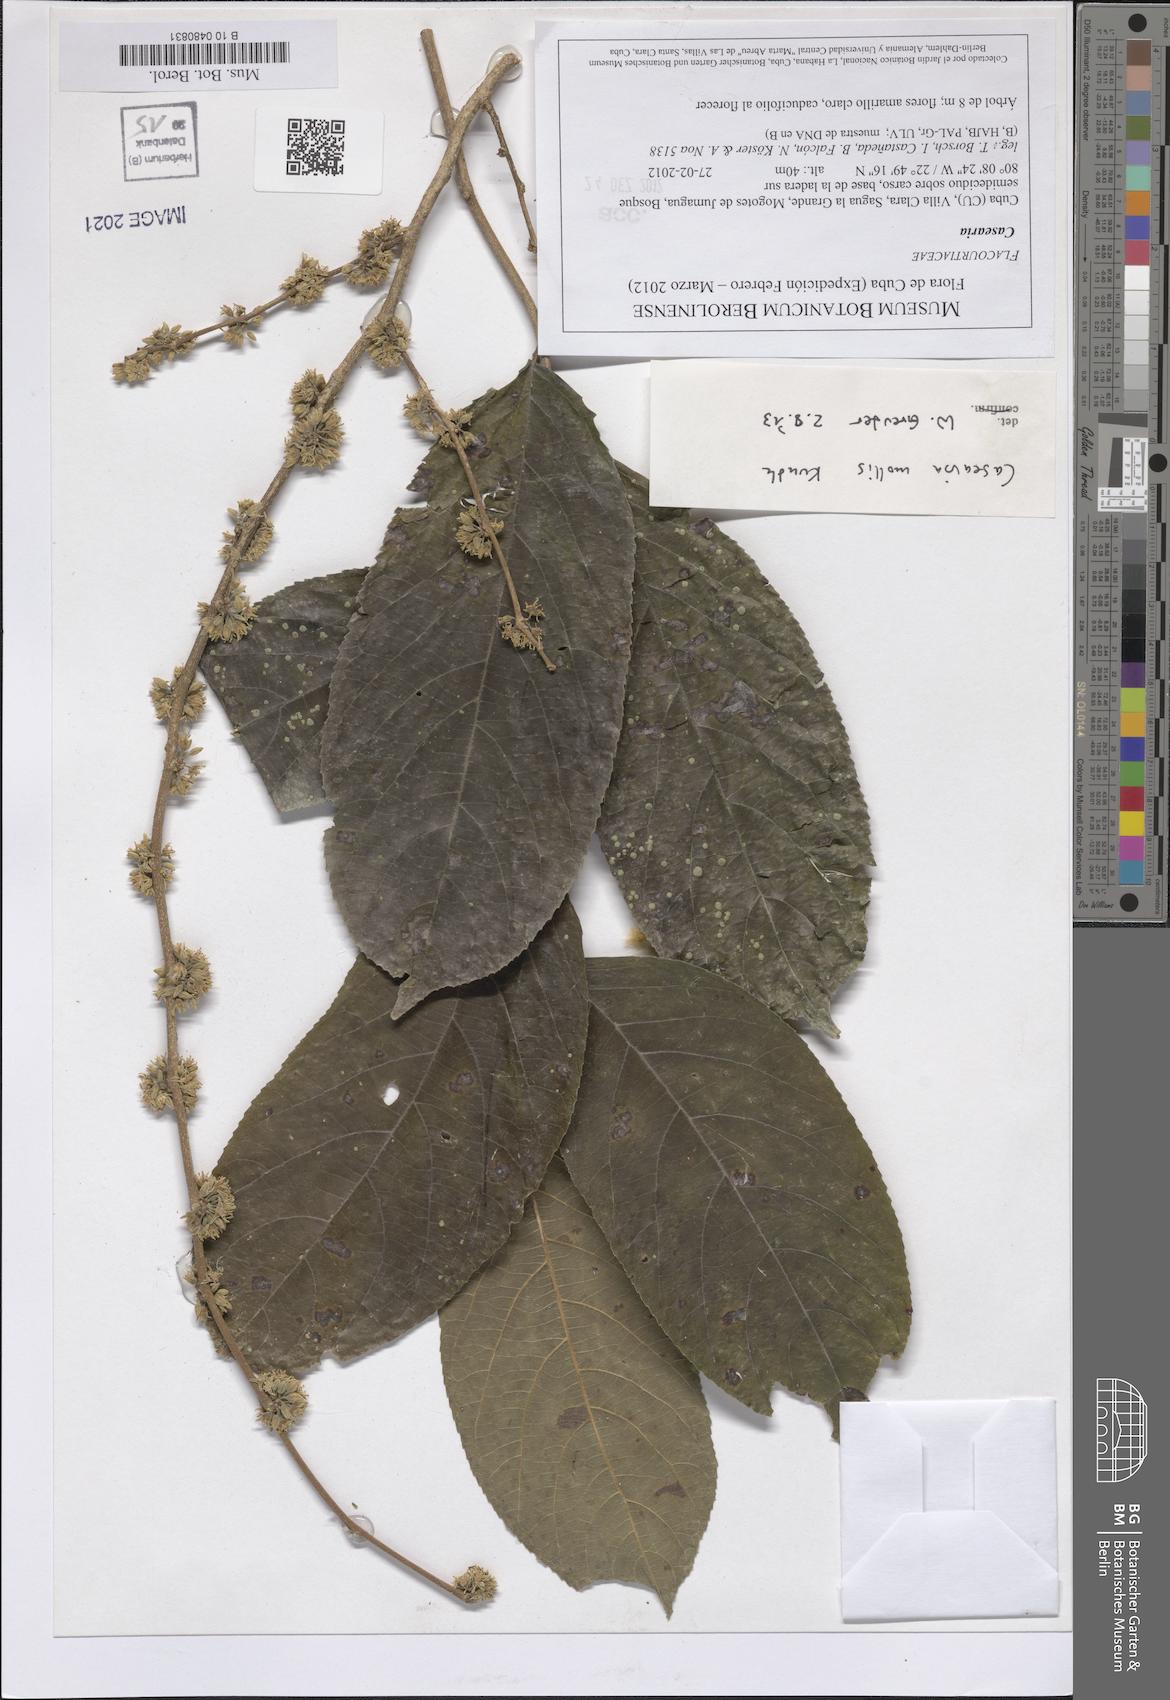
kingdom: Plantae
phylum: Tracheophyta
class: Magnoliopsida
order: Malpighiales
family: Salicaceae
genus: Casearia
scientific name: Casearia mollis
